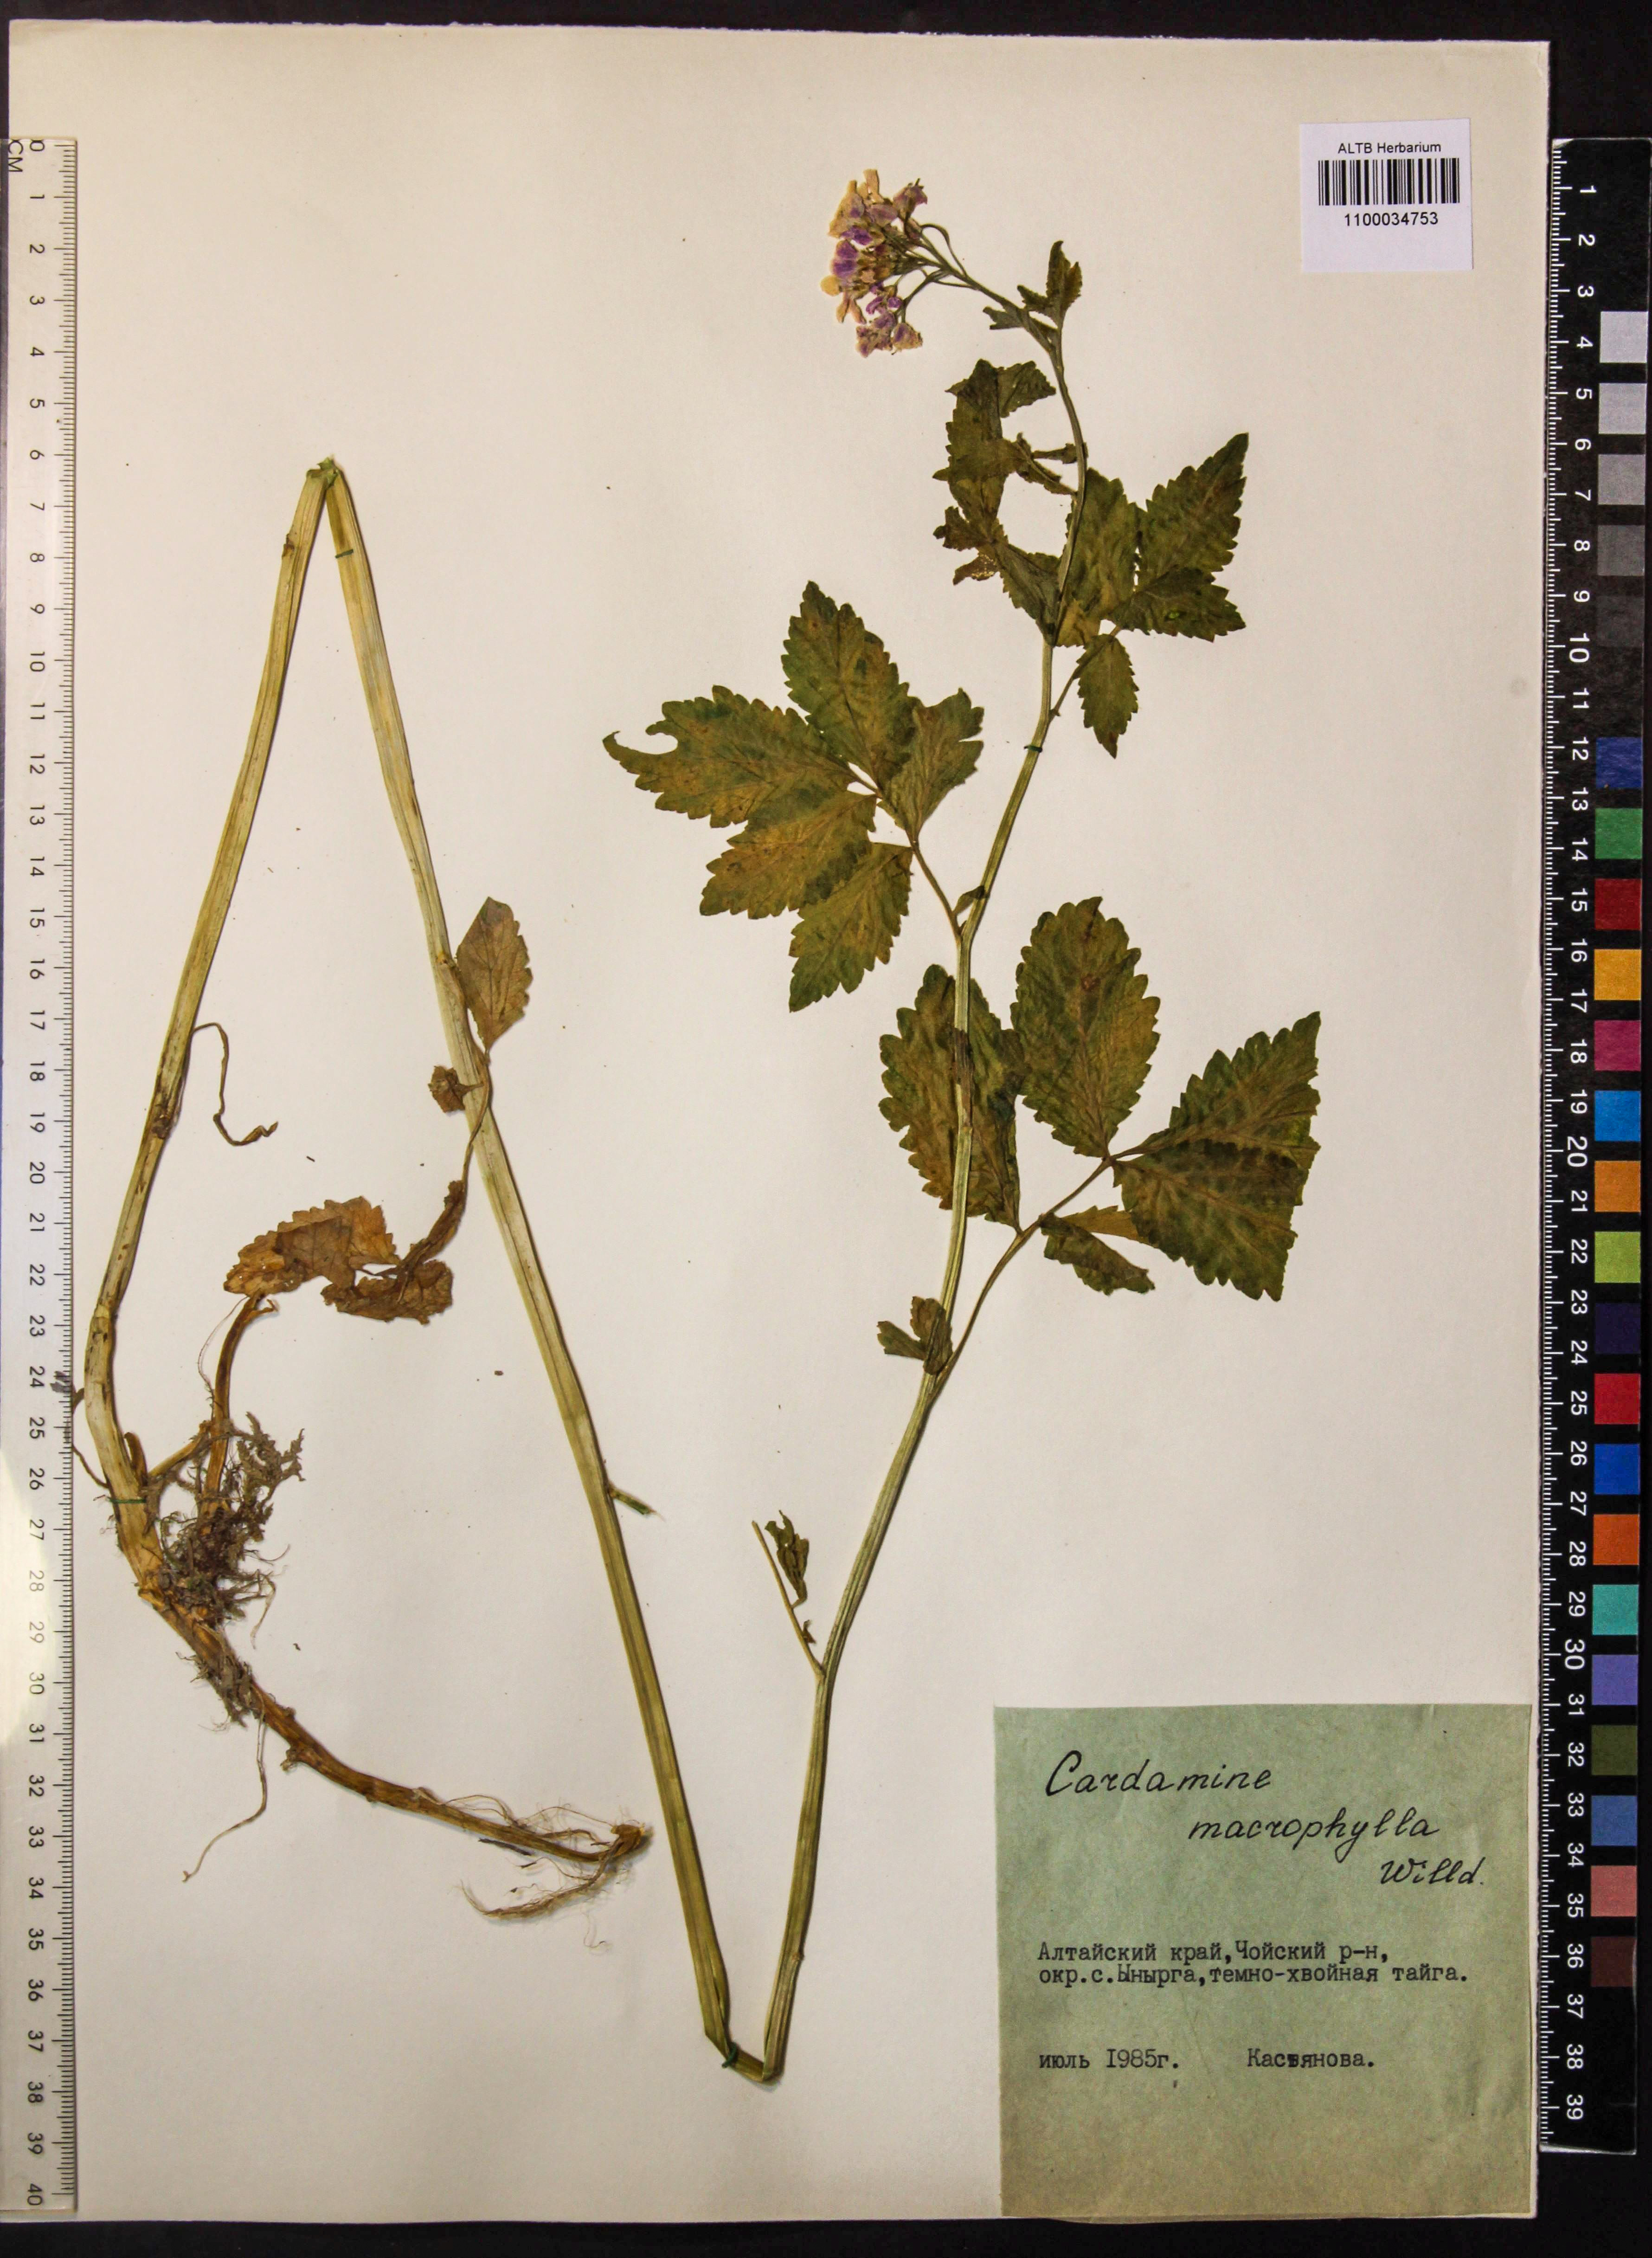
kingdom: Plantae
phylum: Tracheophyta
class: Magnoliopsida
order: Brassicales
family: Brassicaceae
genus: Cardamine
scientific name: Cardamine macrophylla
